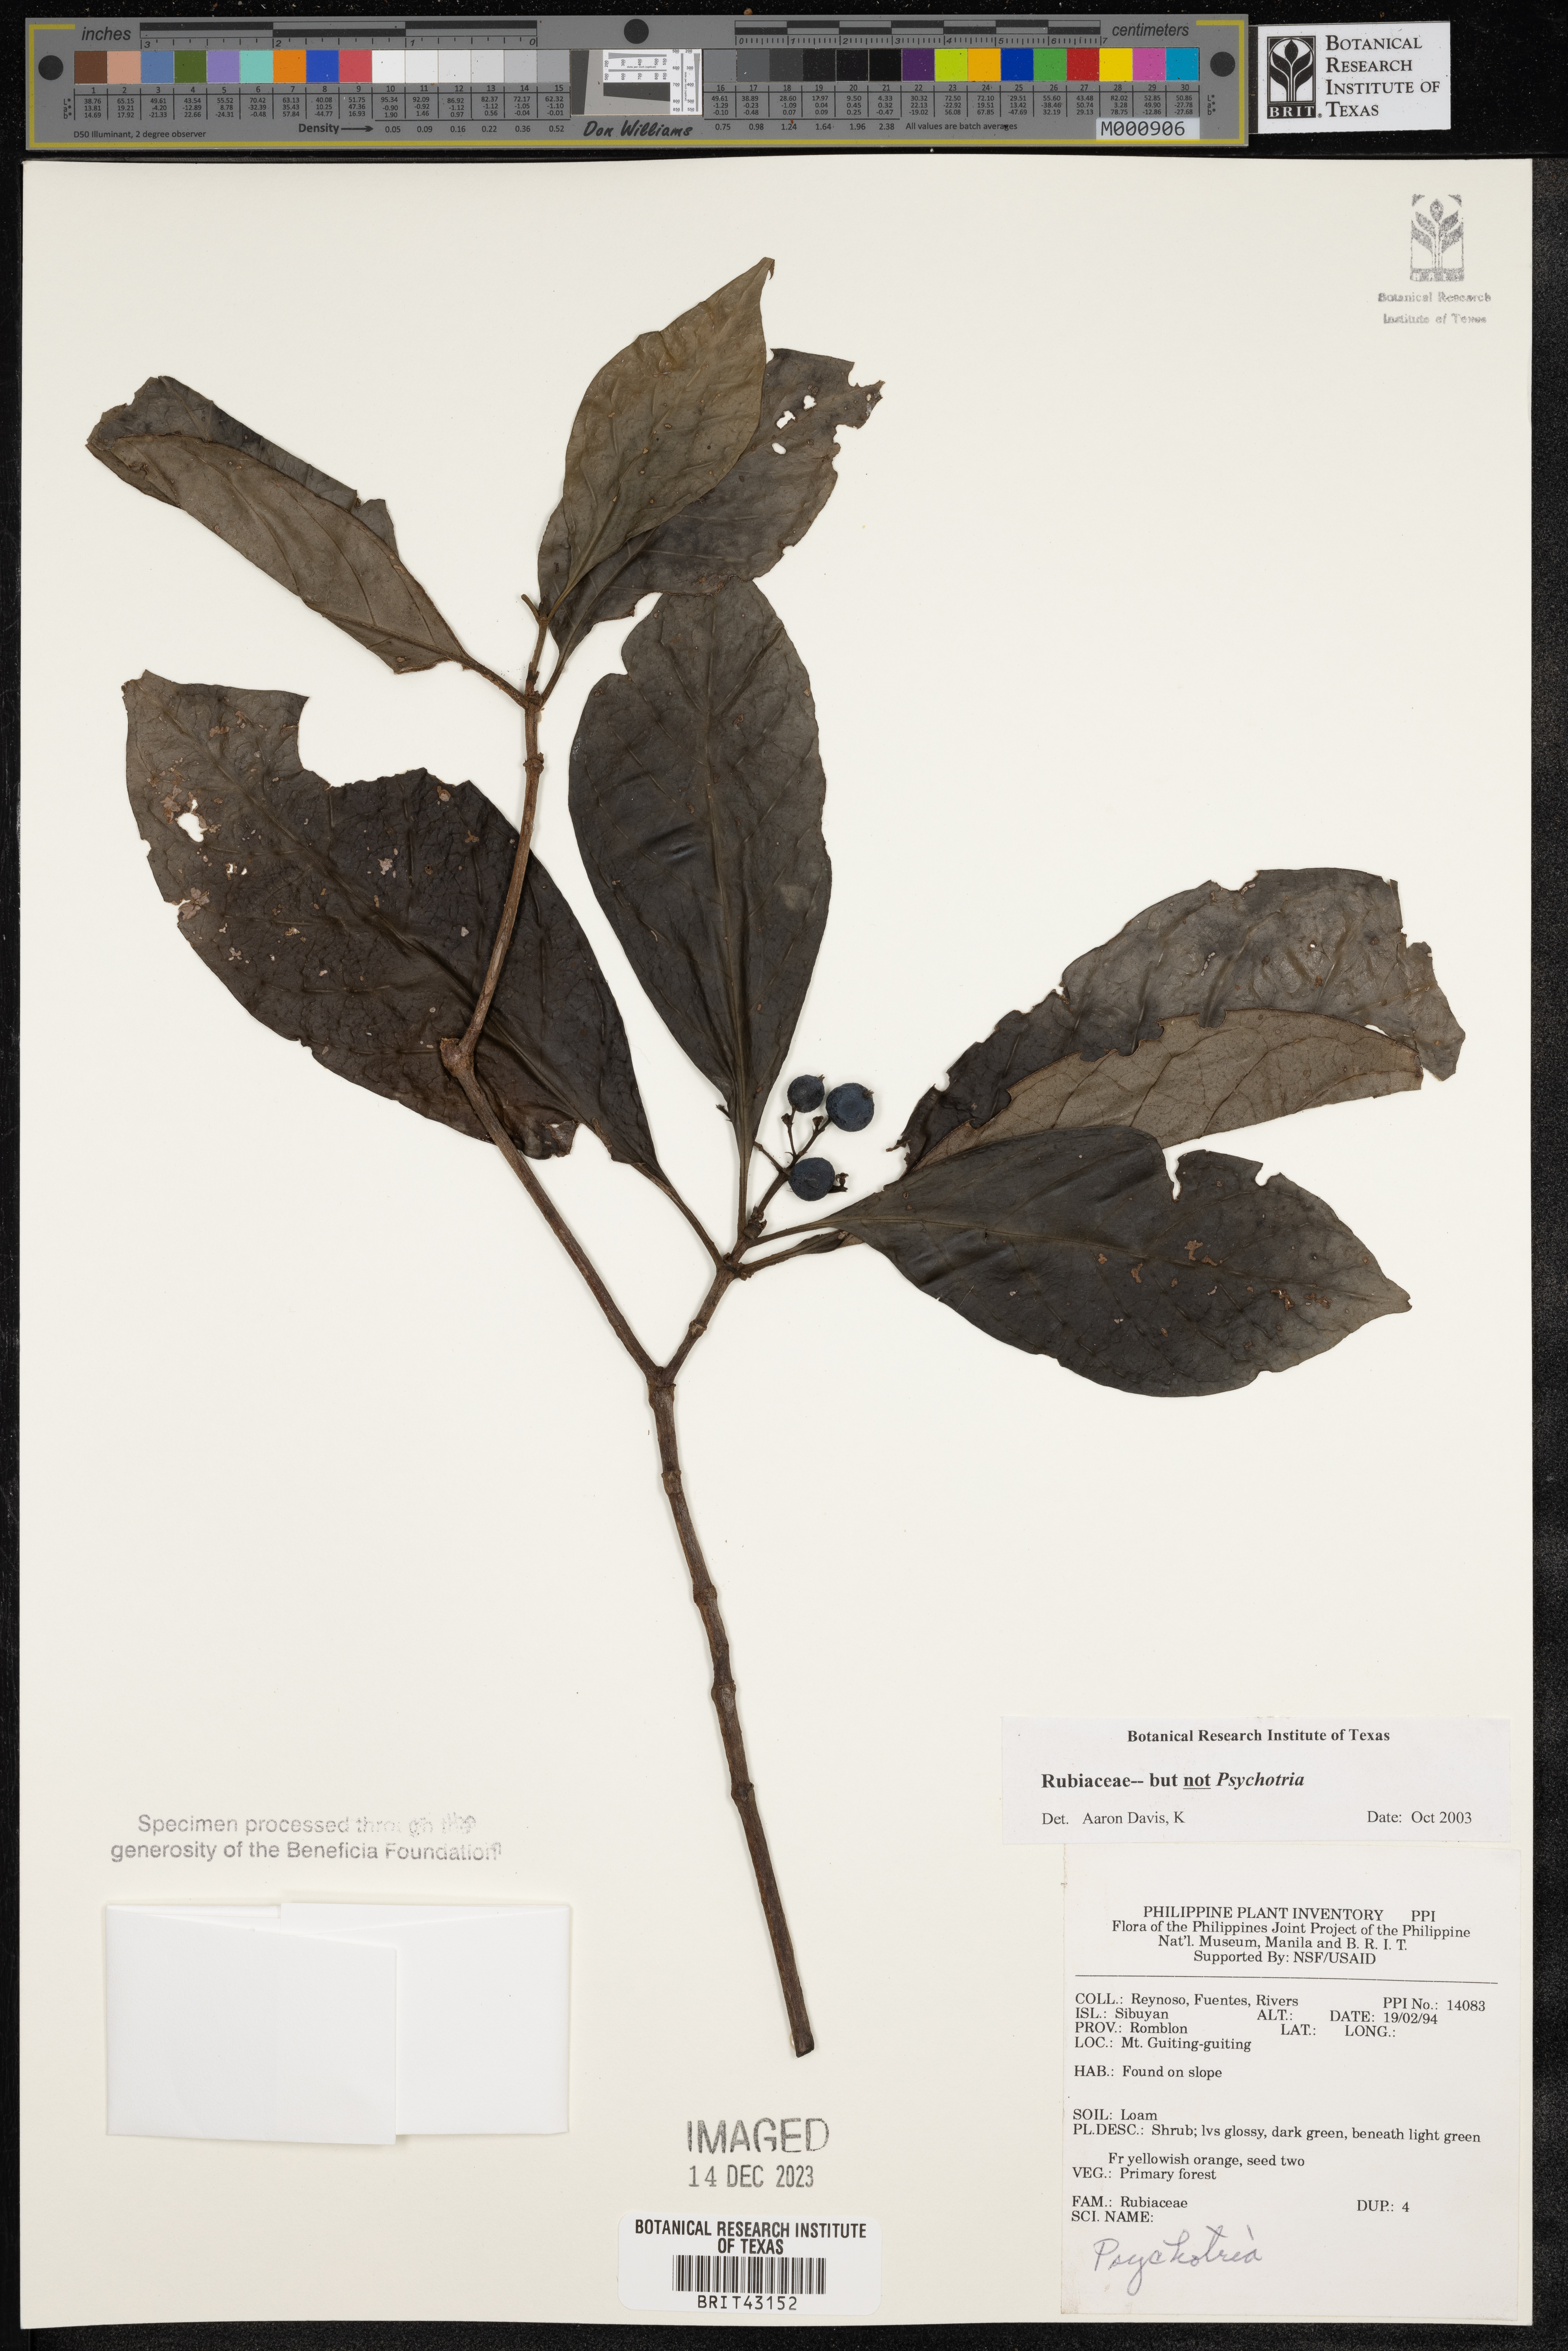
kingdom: Plantae
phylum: Tracheophyta
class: Magnoliopsida
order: Gentianales
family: Rubiaceae
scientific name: Rubiaceae
